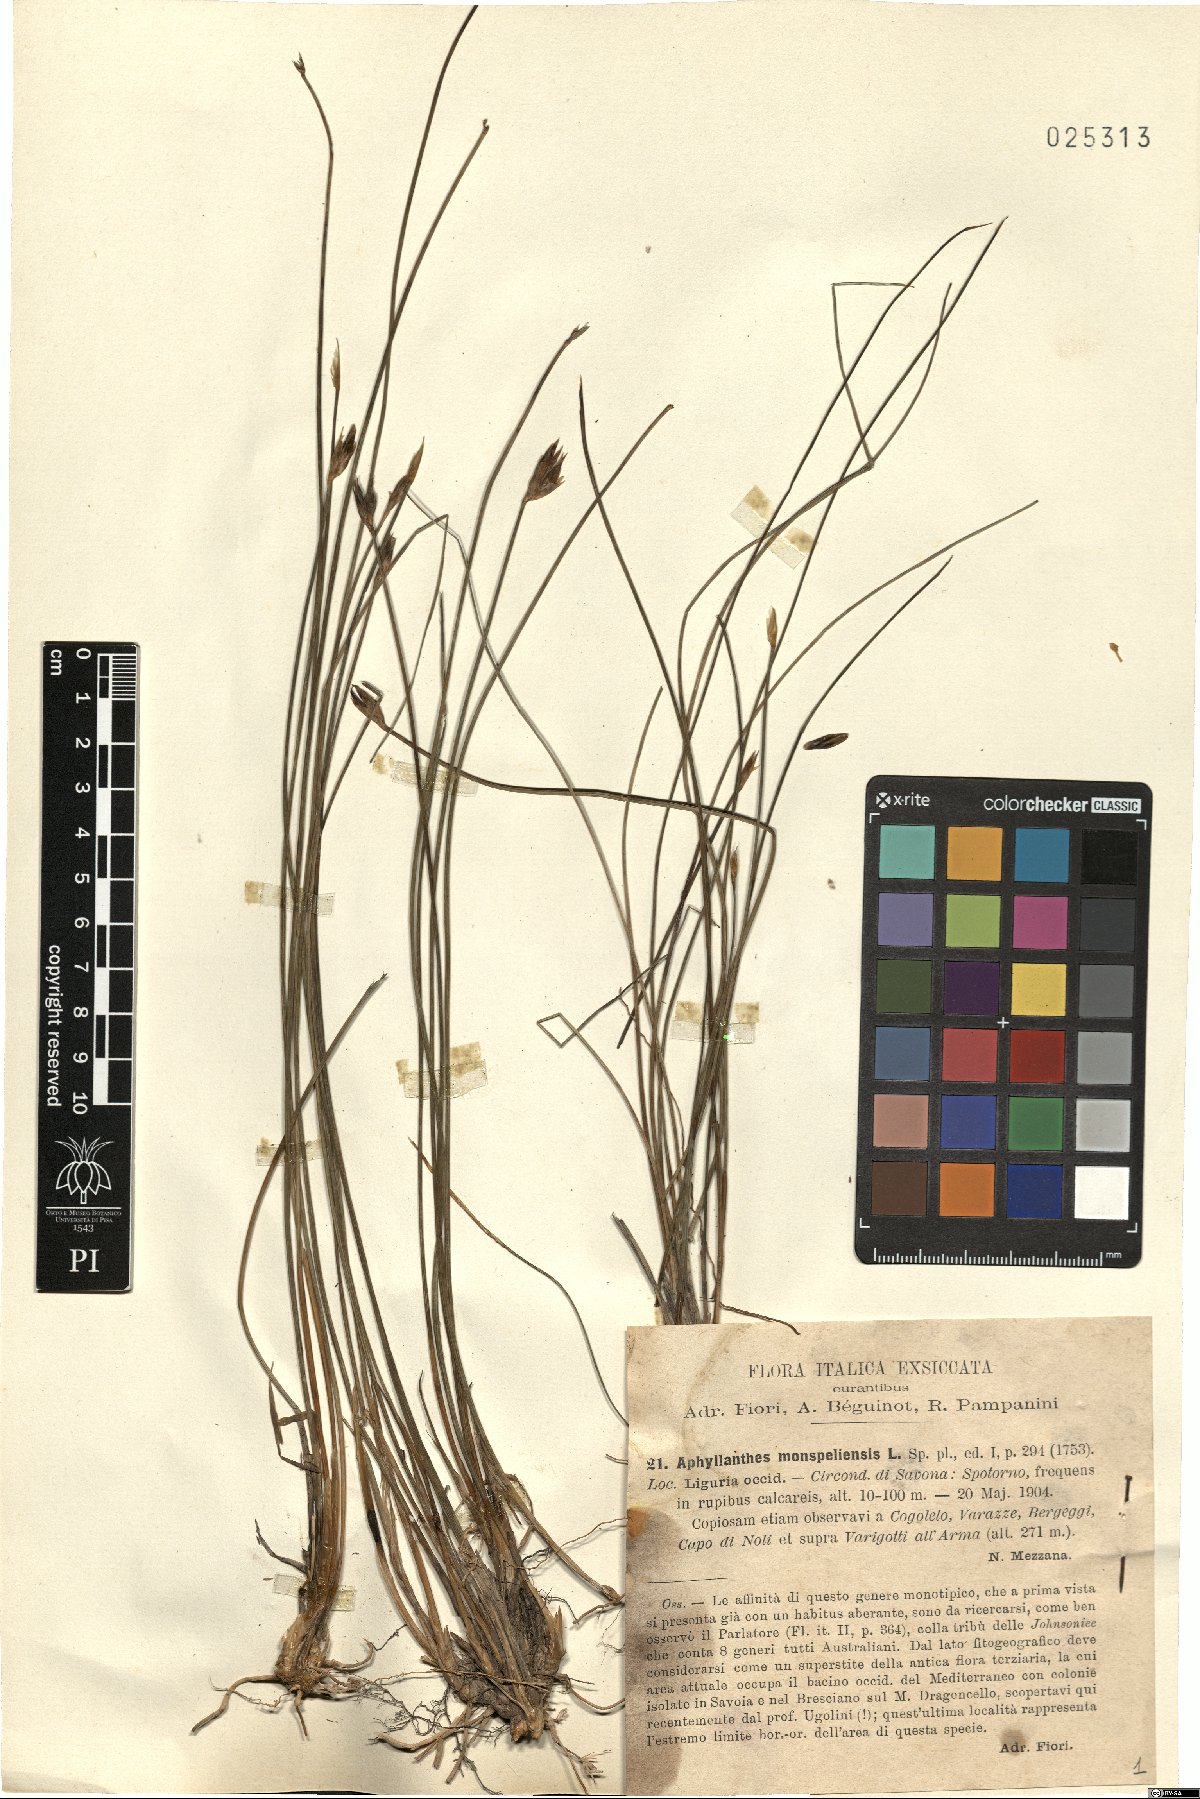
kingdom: Plantae
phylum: Tracheophyta
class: Liliopsida
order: Asparagales
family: Asparagaceae
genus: Aphyllanthes
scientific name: Aphyllanthes monspeliensis
